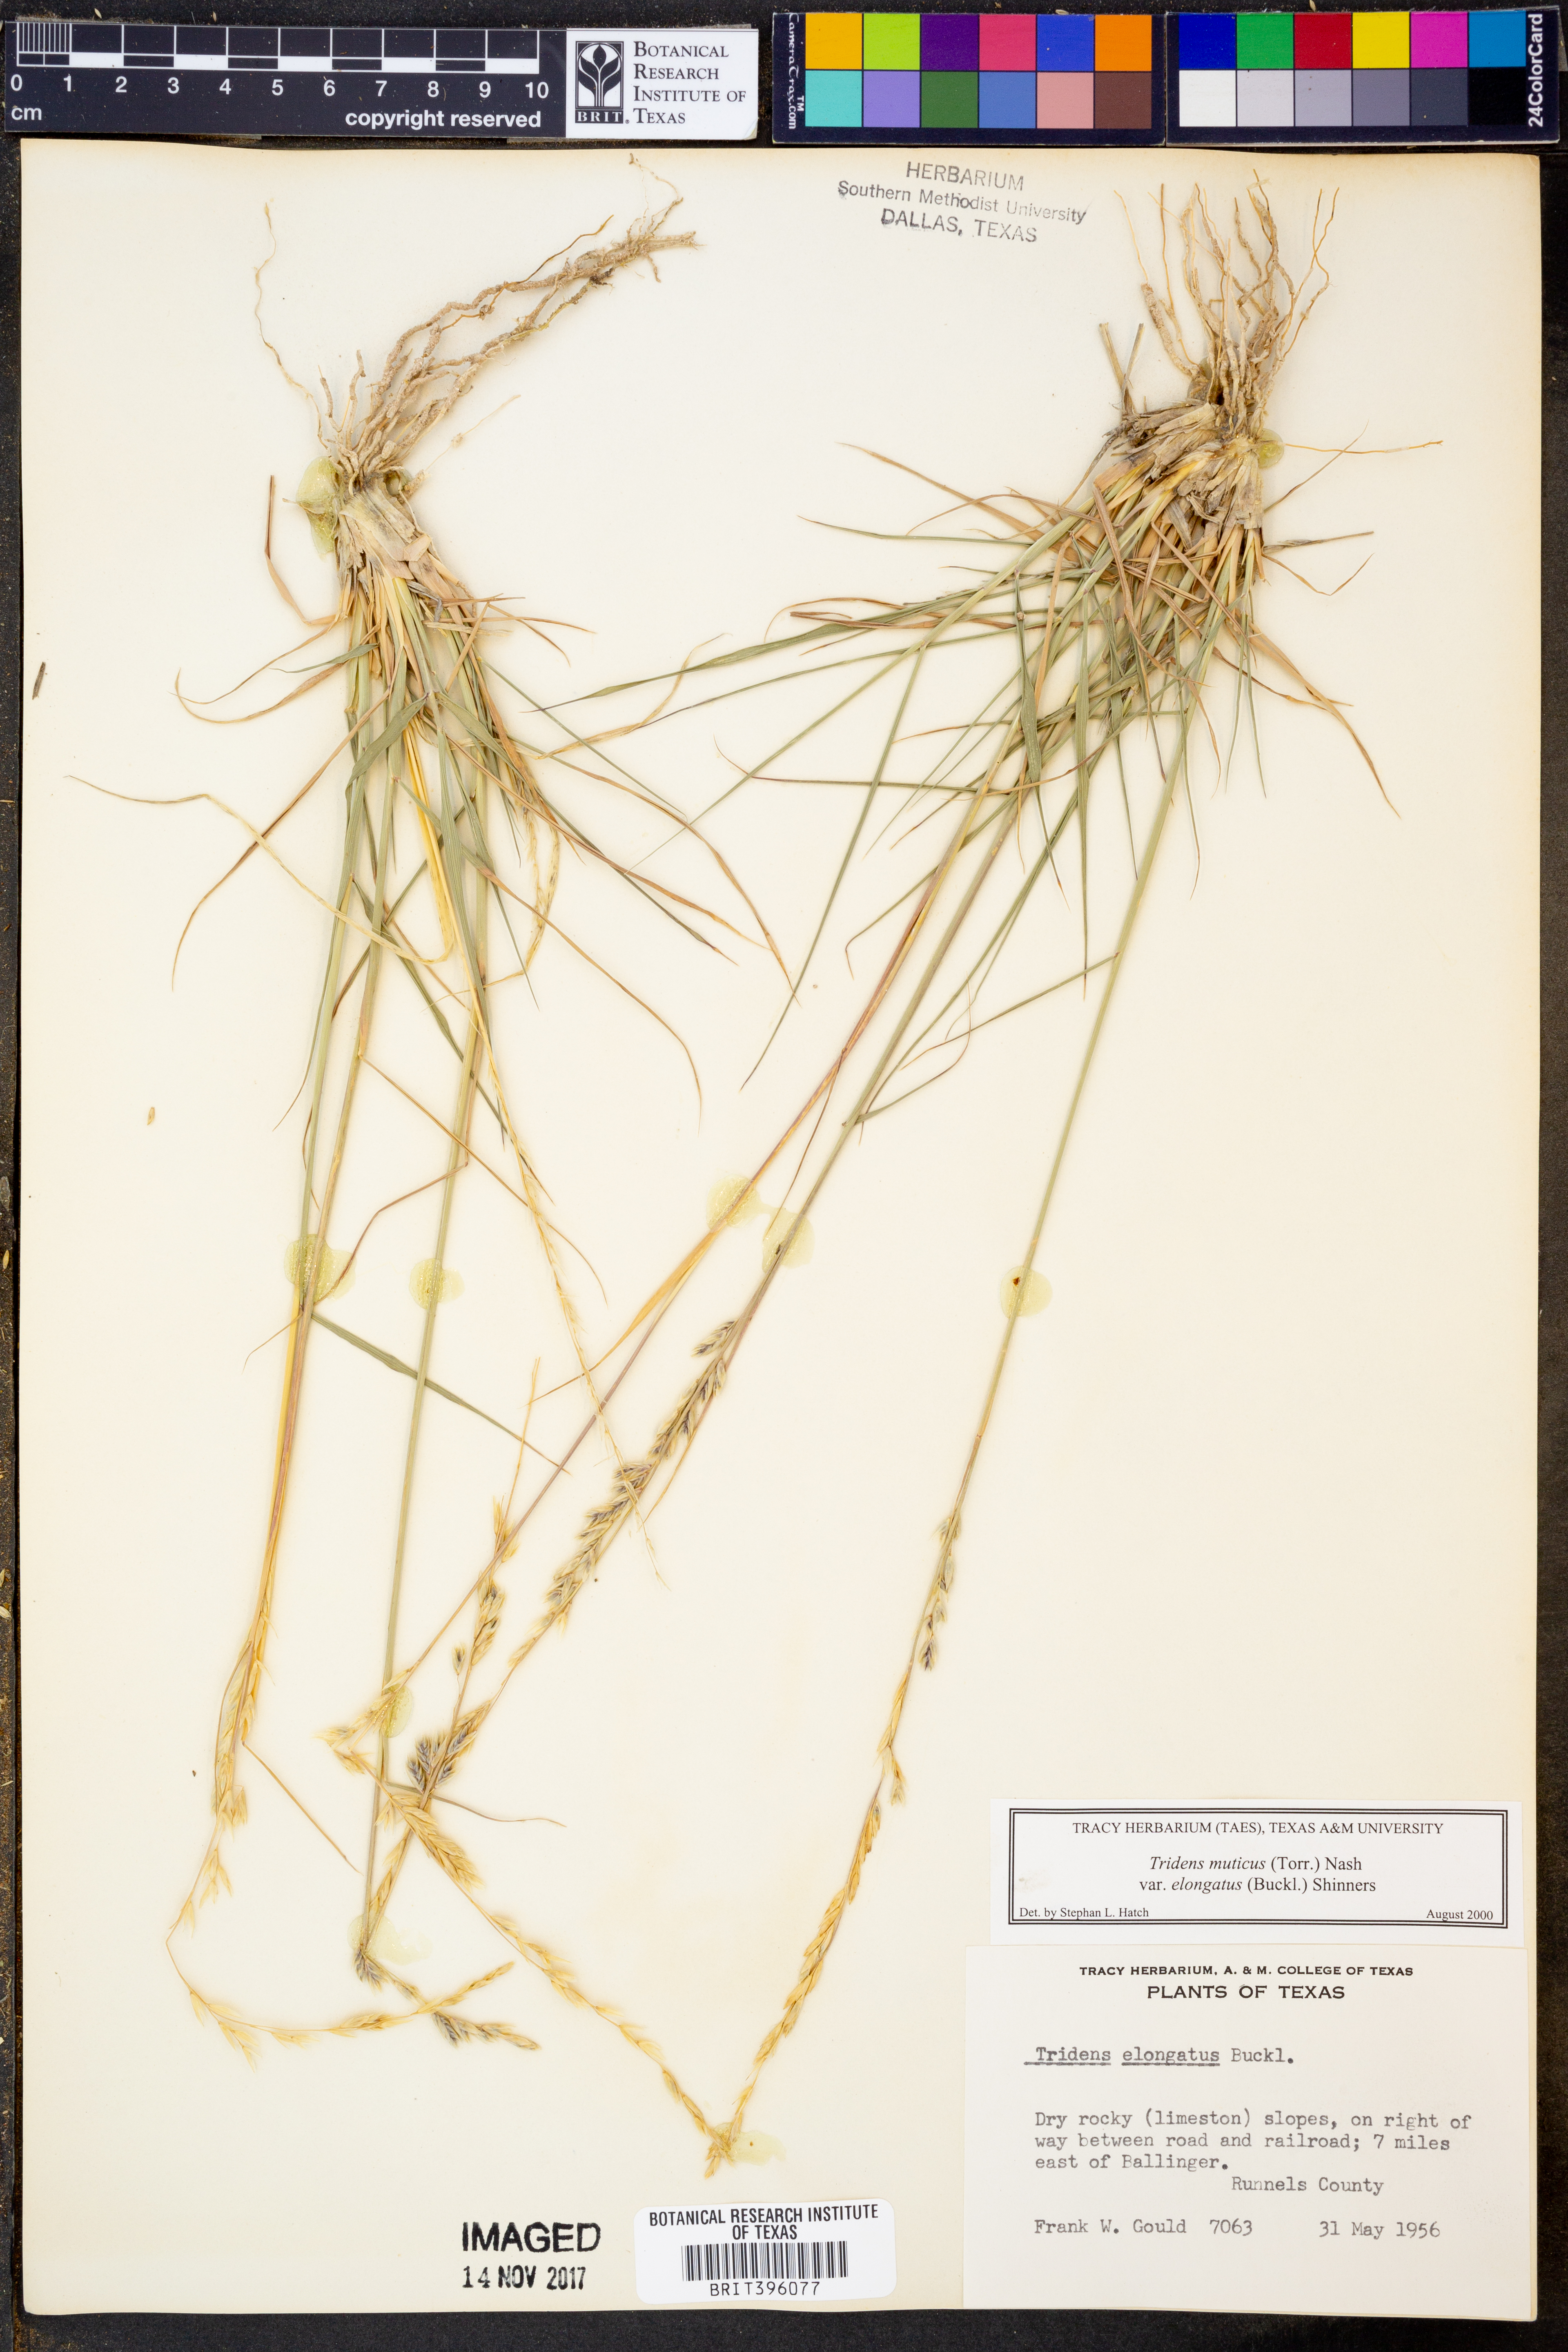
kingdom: Plantae
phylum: Tracheophyta
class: Liliopsida
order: Poales
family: Poaceae
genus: Tridentopsis
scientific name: Tridentopsis mutica
